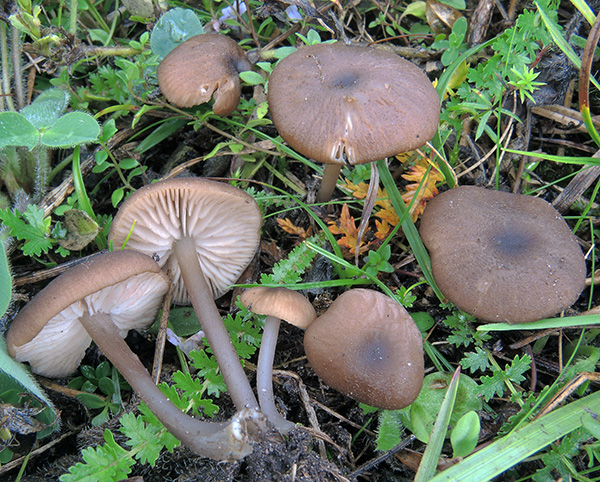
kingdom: Fungi
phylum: Basidiomycota
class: Agaricomycetes
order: Agaricales
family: Entolomataceae
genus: Entoloma
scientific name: Entoloma minutigranulosum
